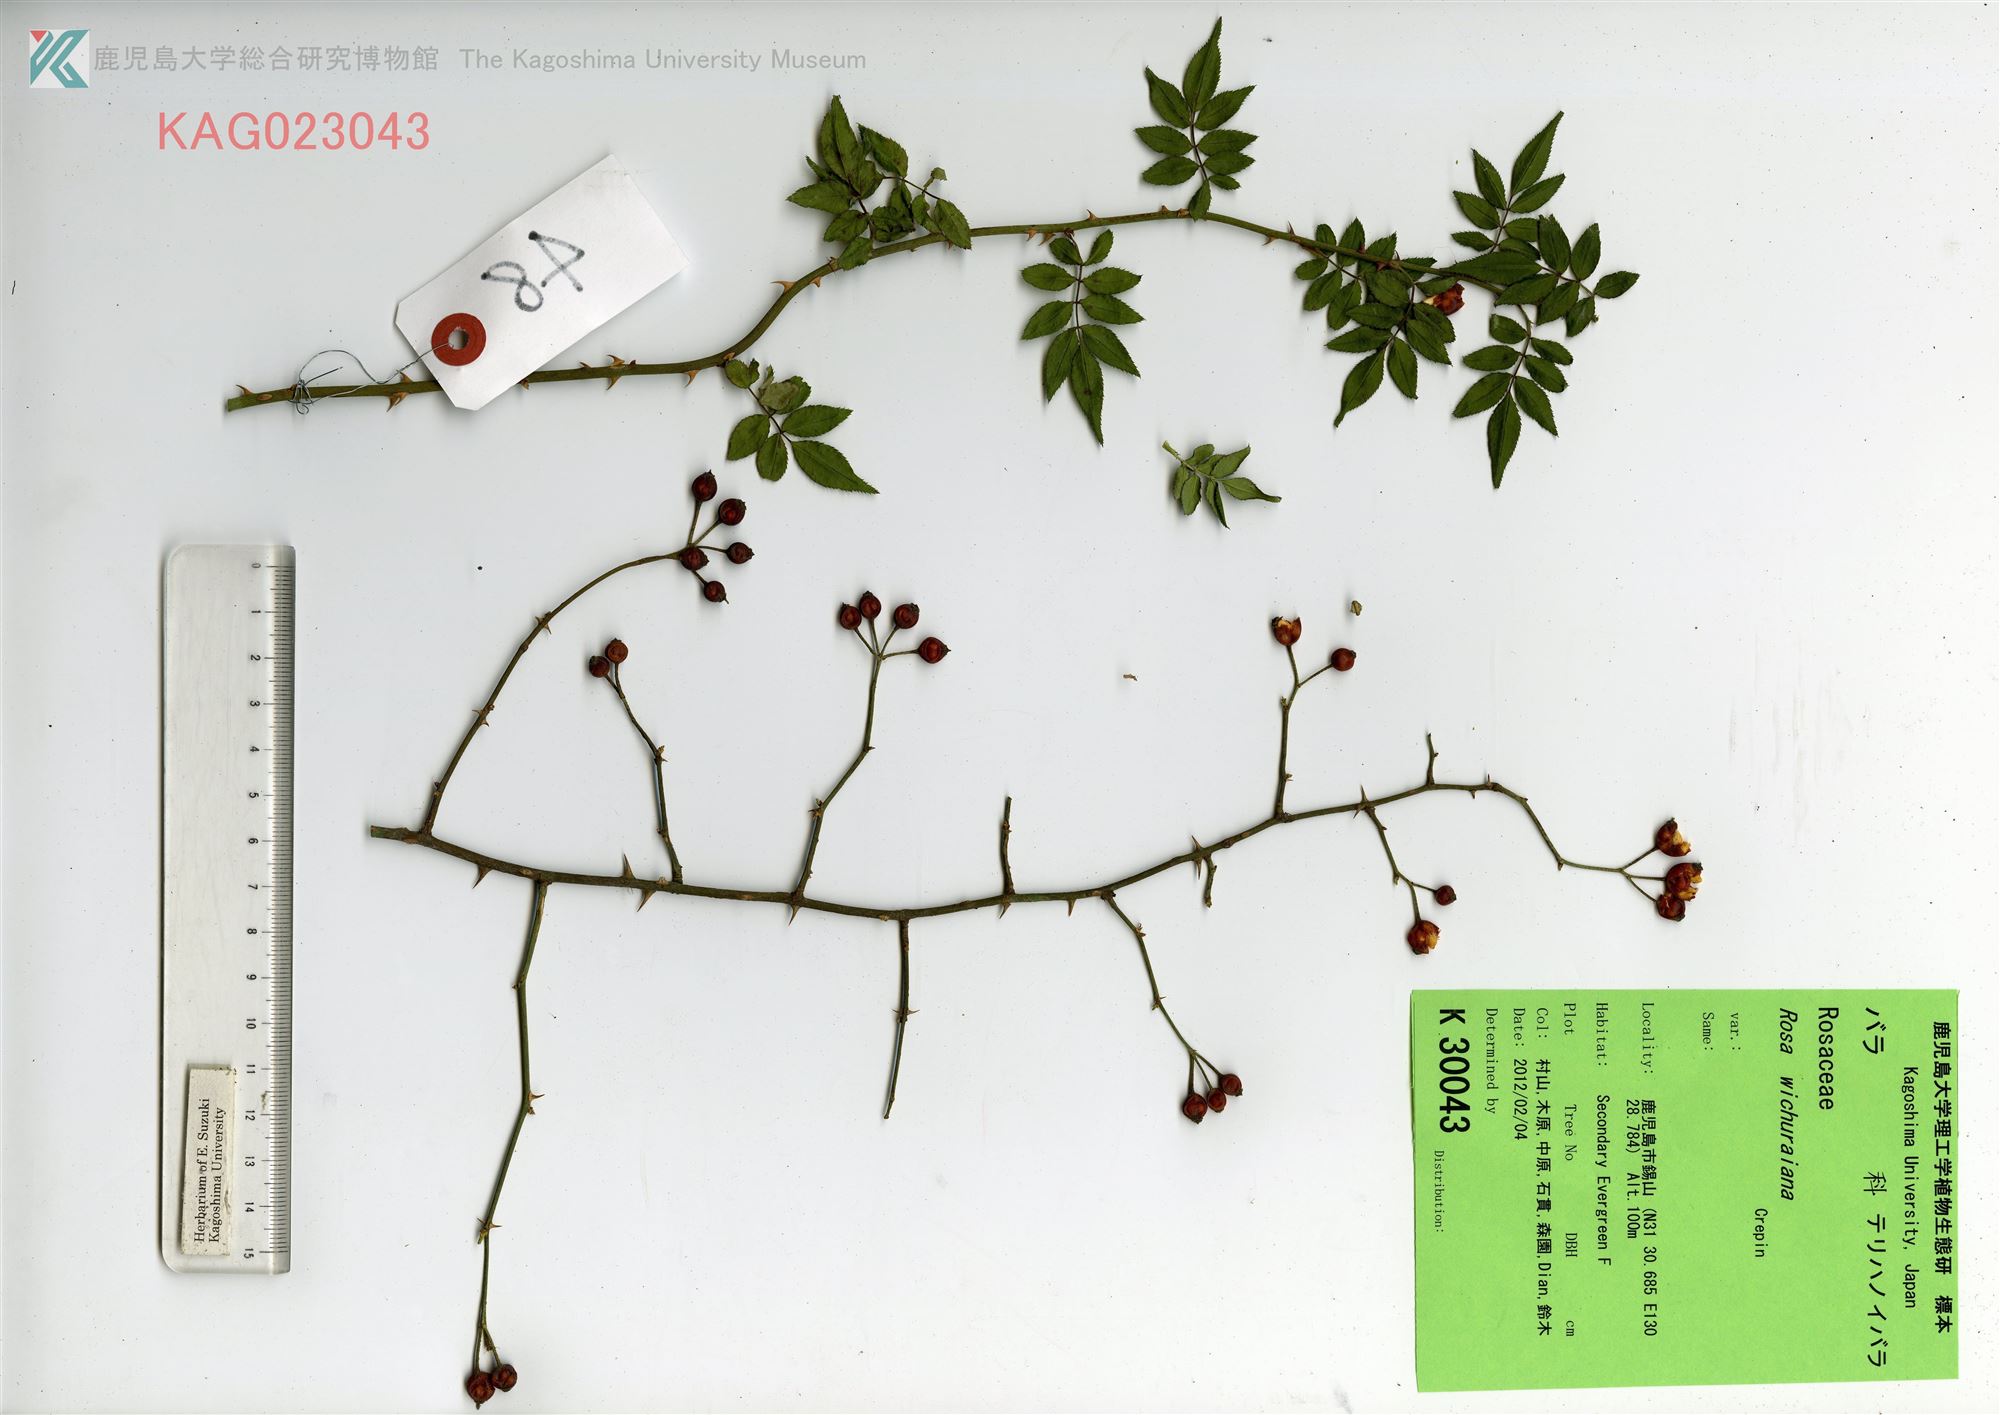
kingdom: Plantae
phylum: Tracheophyta
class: Magnoliopsida
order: Rosales
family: Rosaceae
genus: Rosa
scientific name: Rosa luciae
